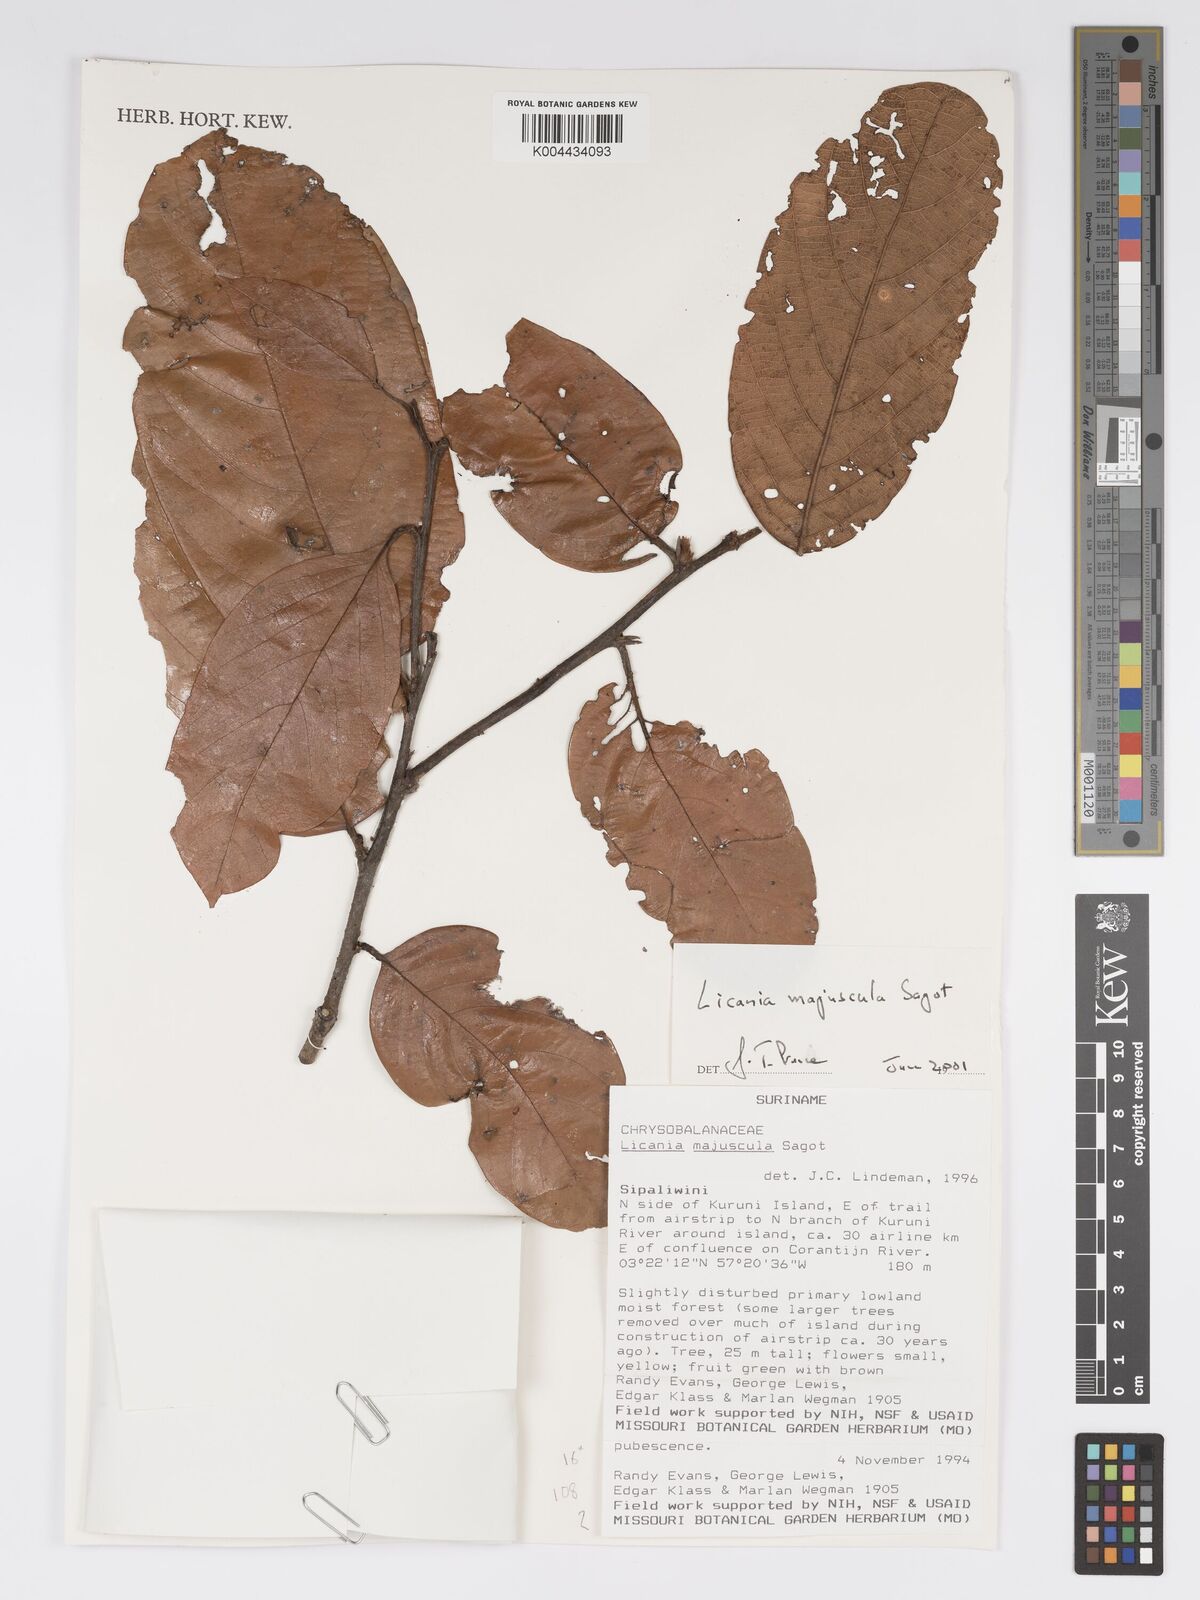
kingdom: Plantae
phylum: Tracheophyta
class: Magnoliopsida
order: Malpighiales
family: Chrysobalanaceae
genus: Licania
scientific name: Licania jimenezii
